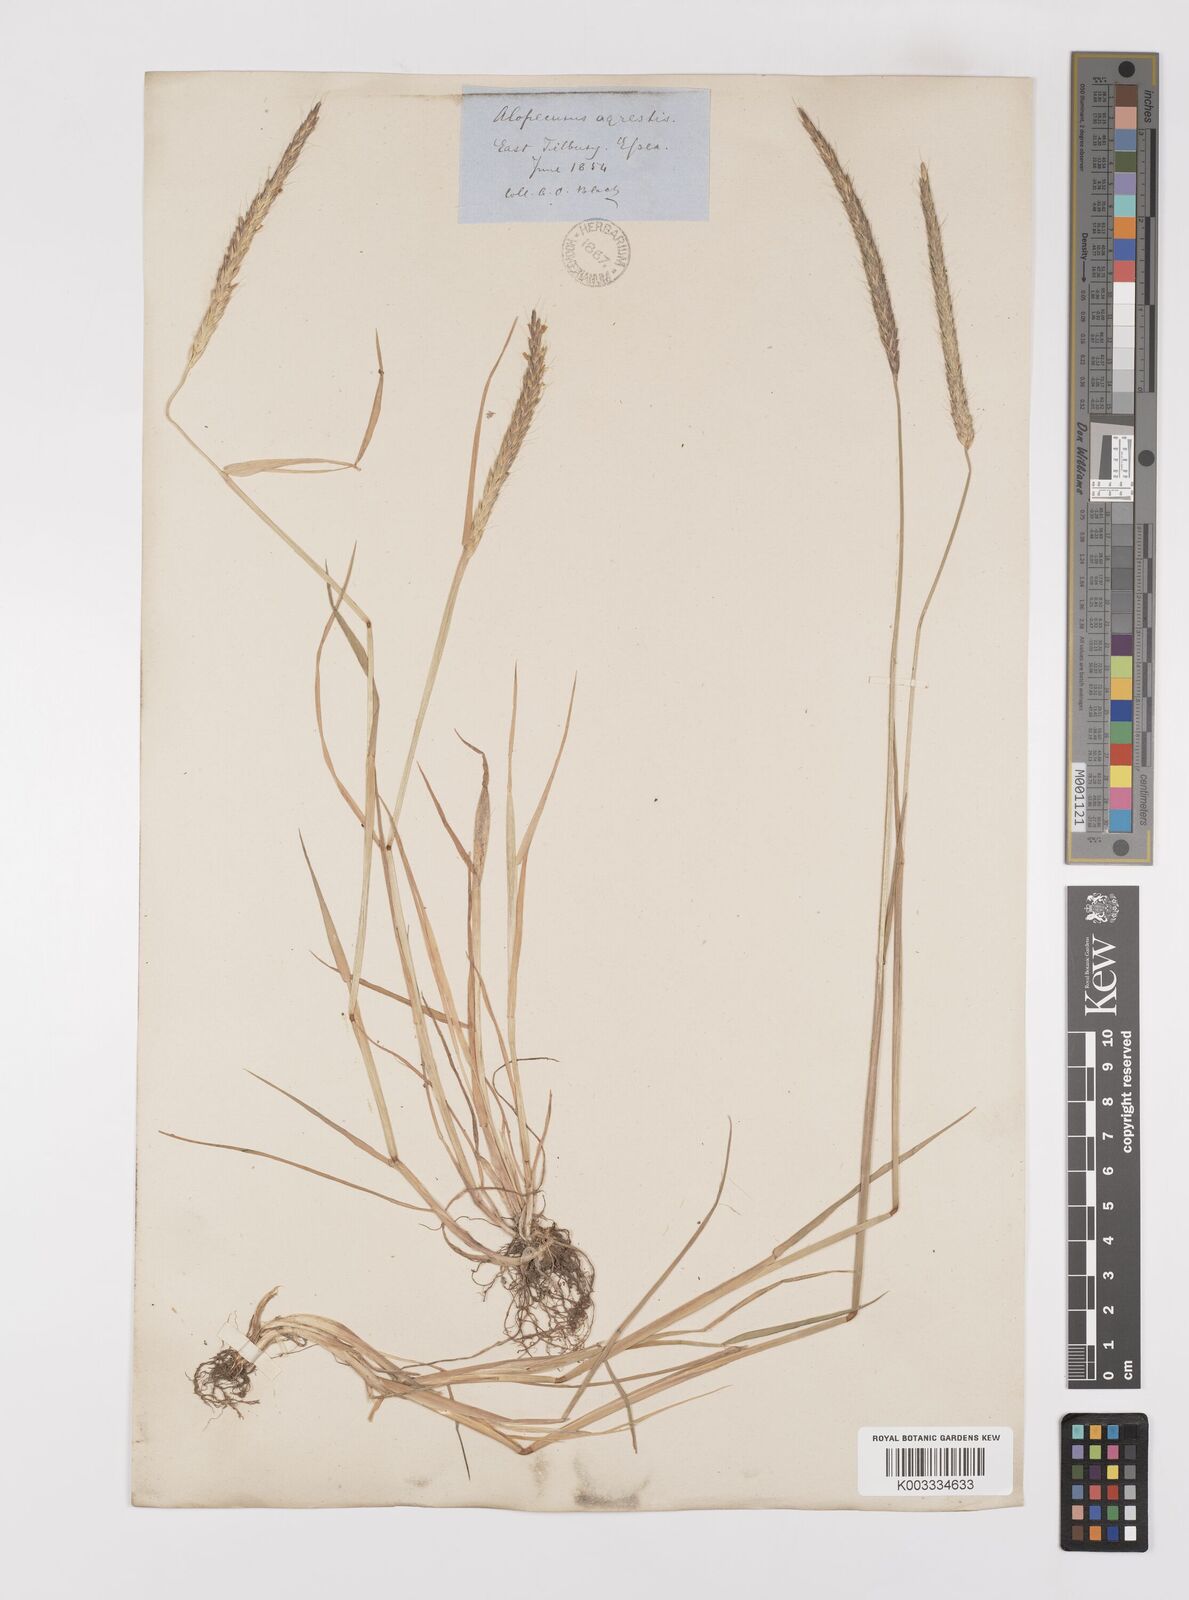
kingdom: Plantae
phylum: Tracheophyta
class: Liliopsida
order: Poales
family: Poaceae
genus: Alopecurus
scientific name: Alopecurus myosuroides
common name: Black-grass
